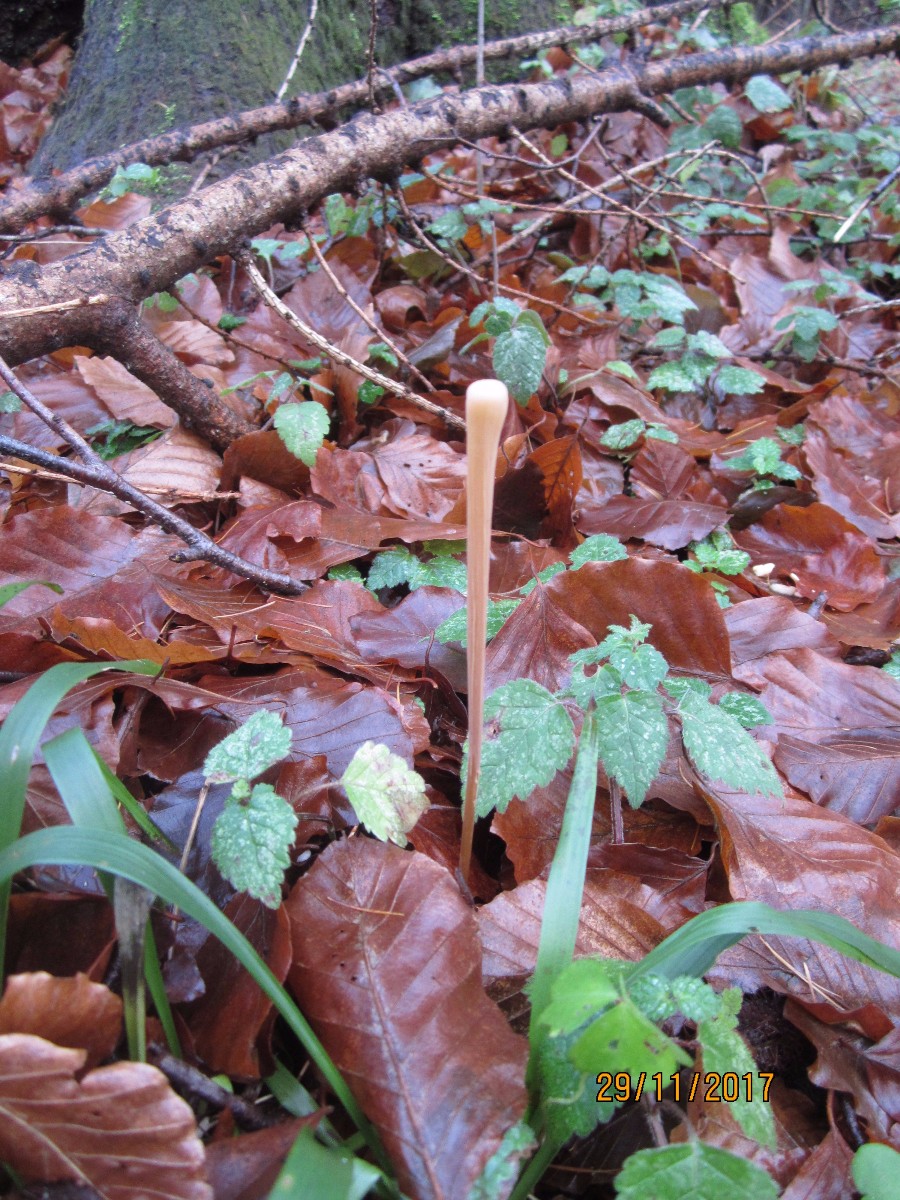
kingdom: Fungi
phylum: Basidiomycota
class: Agaricomycetes
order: Agaricales
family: Typhulaceae
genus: Typhula
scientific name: Typhula fistulosa
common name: pibet rørkølle
